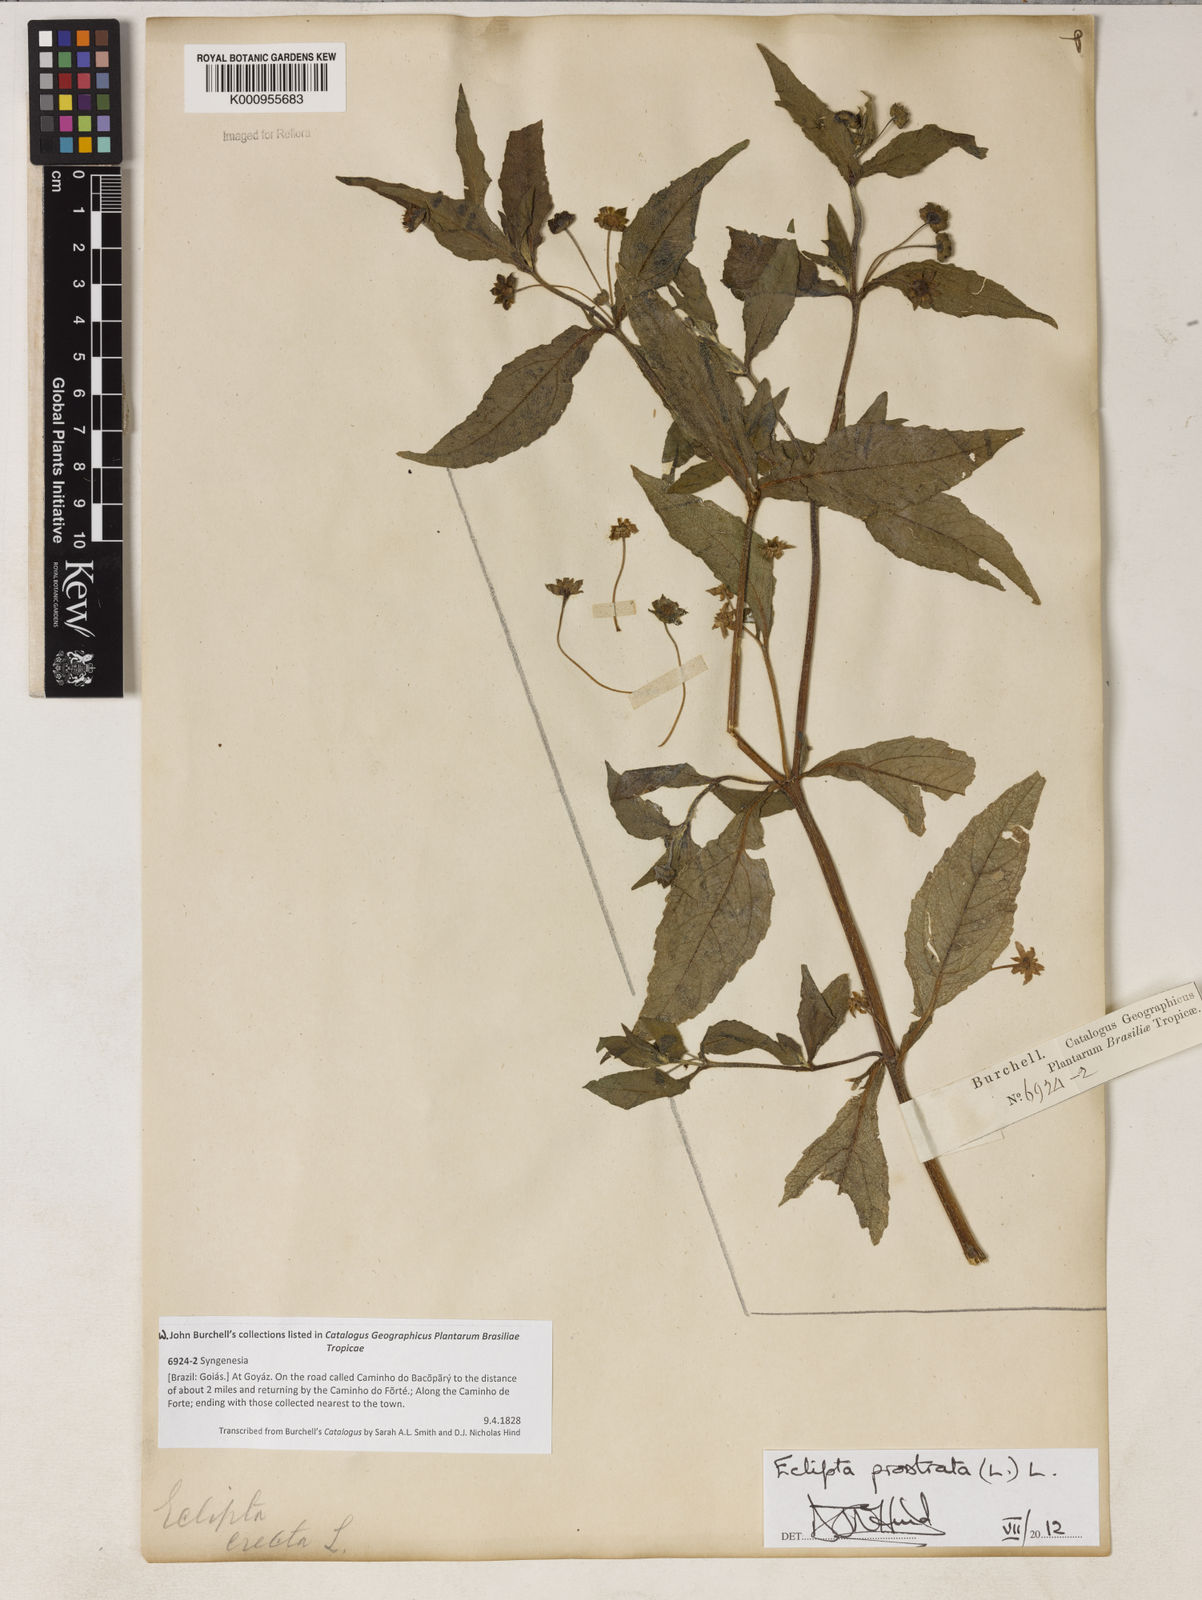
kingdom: Plantae
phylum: Tracheophyta
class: Magnoliopsida
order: Asterales
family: Asteraceae
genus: Eclipta
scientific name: Eclipta prostrata
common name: False daisy
